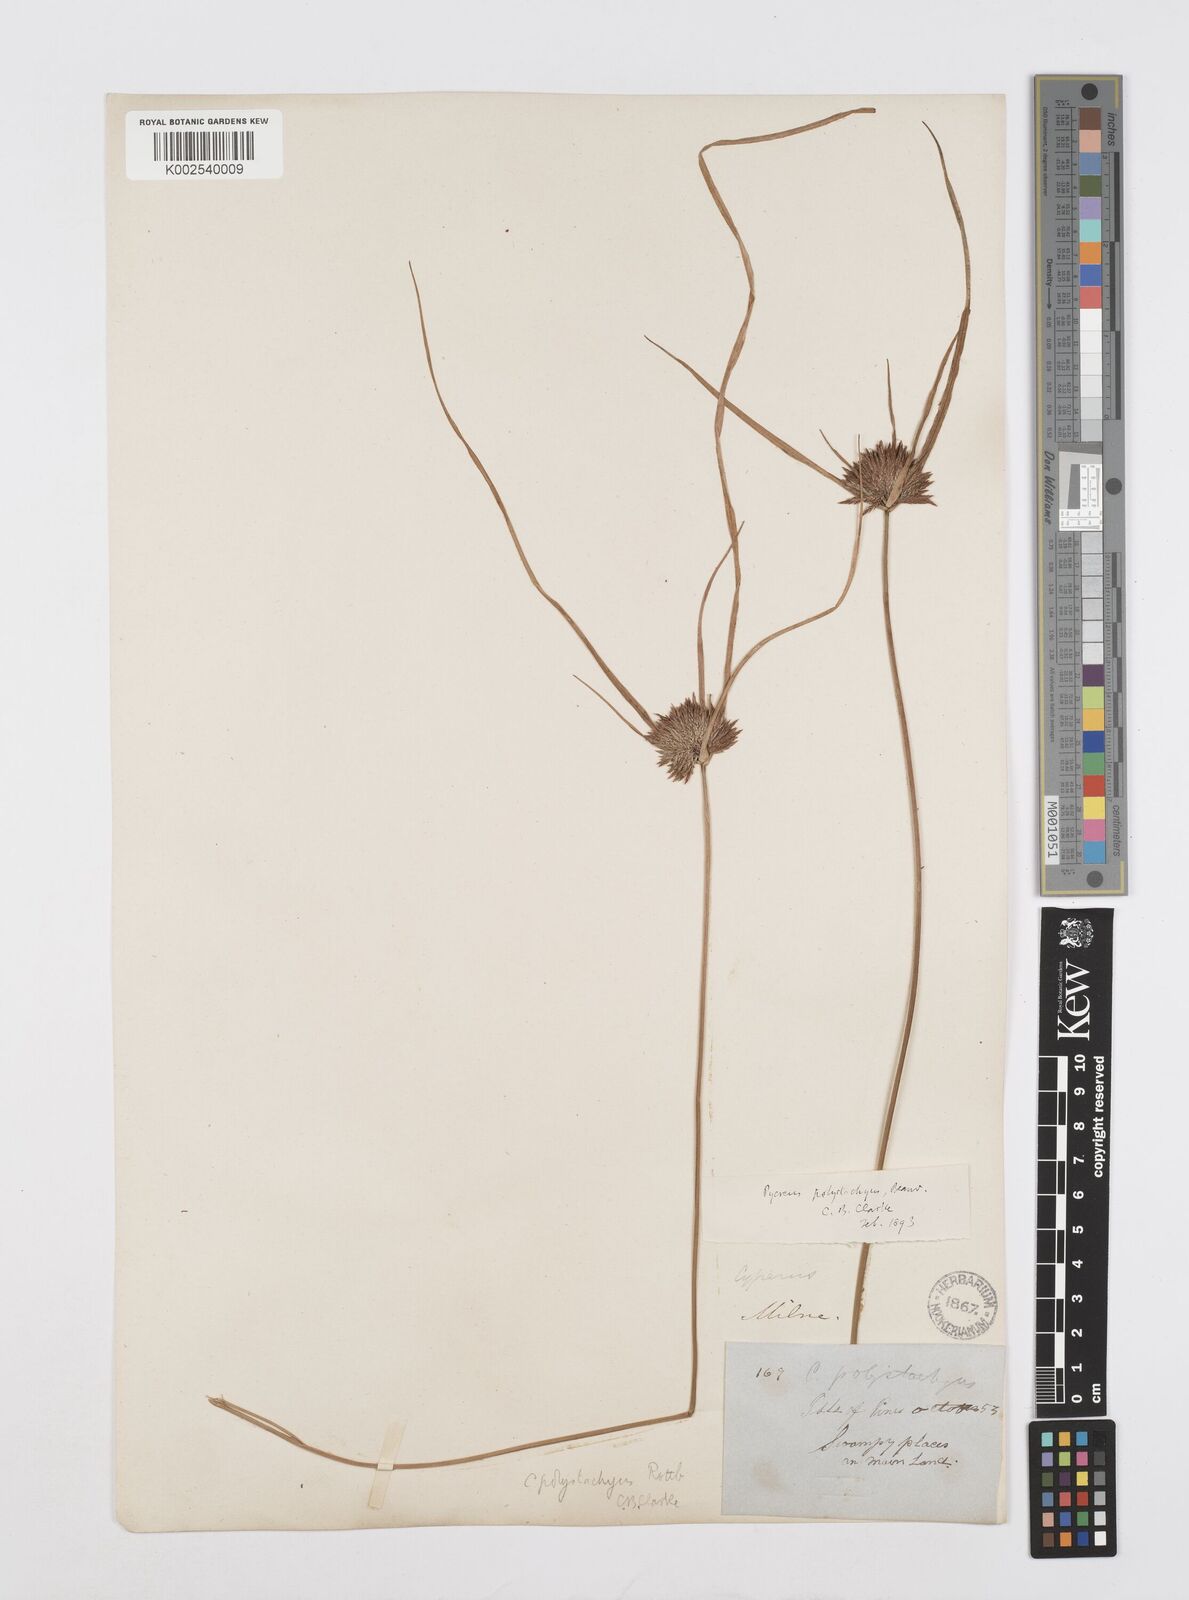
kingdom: Plantae
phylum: Tracheophyta
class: Liliopsida
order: Poales
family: Cyperaceae
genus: Cyperus
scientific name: Cyperus polystachyos
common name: Bunchy flat sedge
